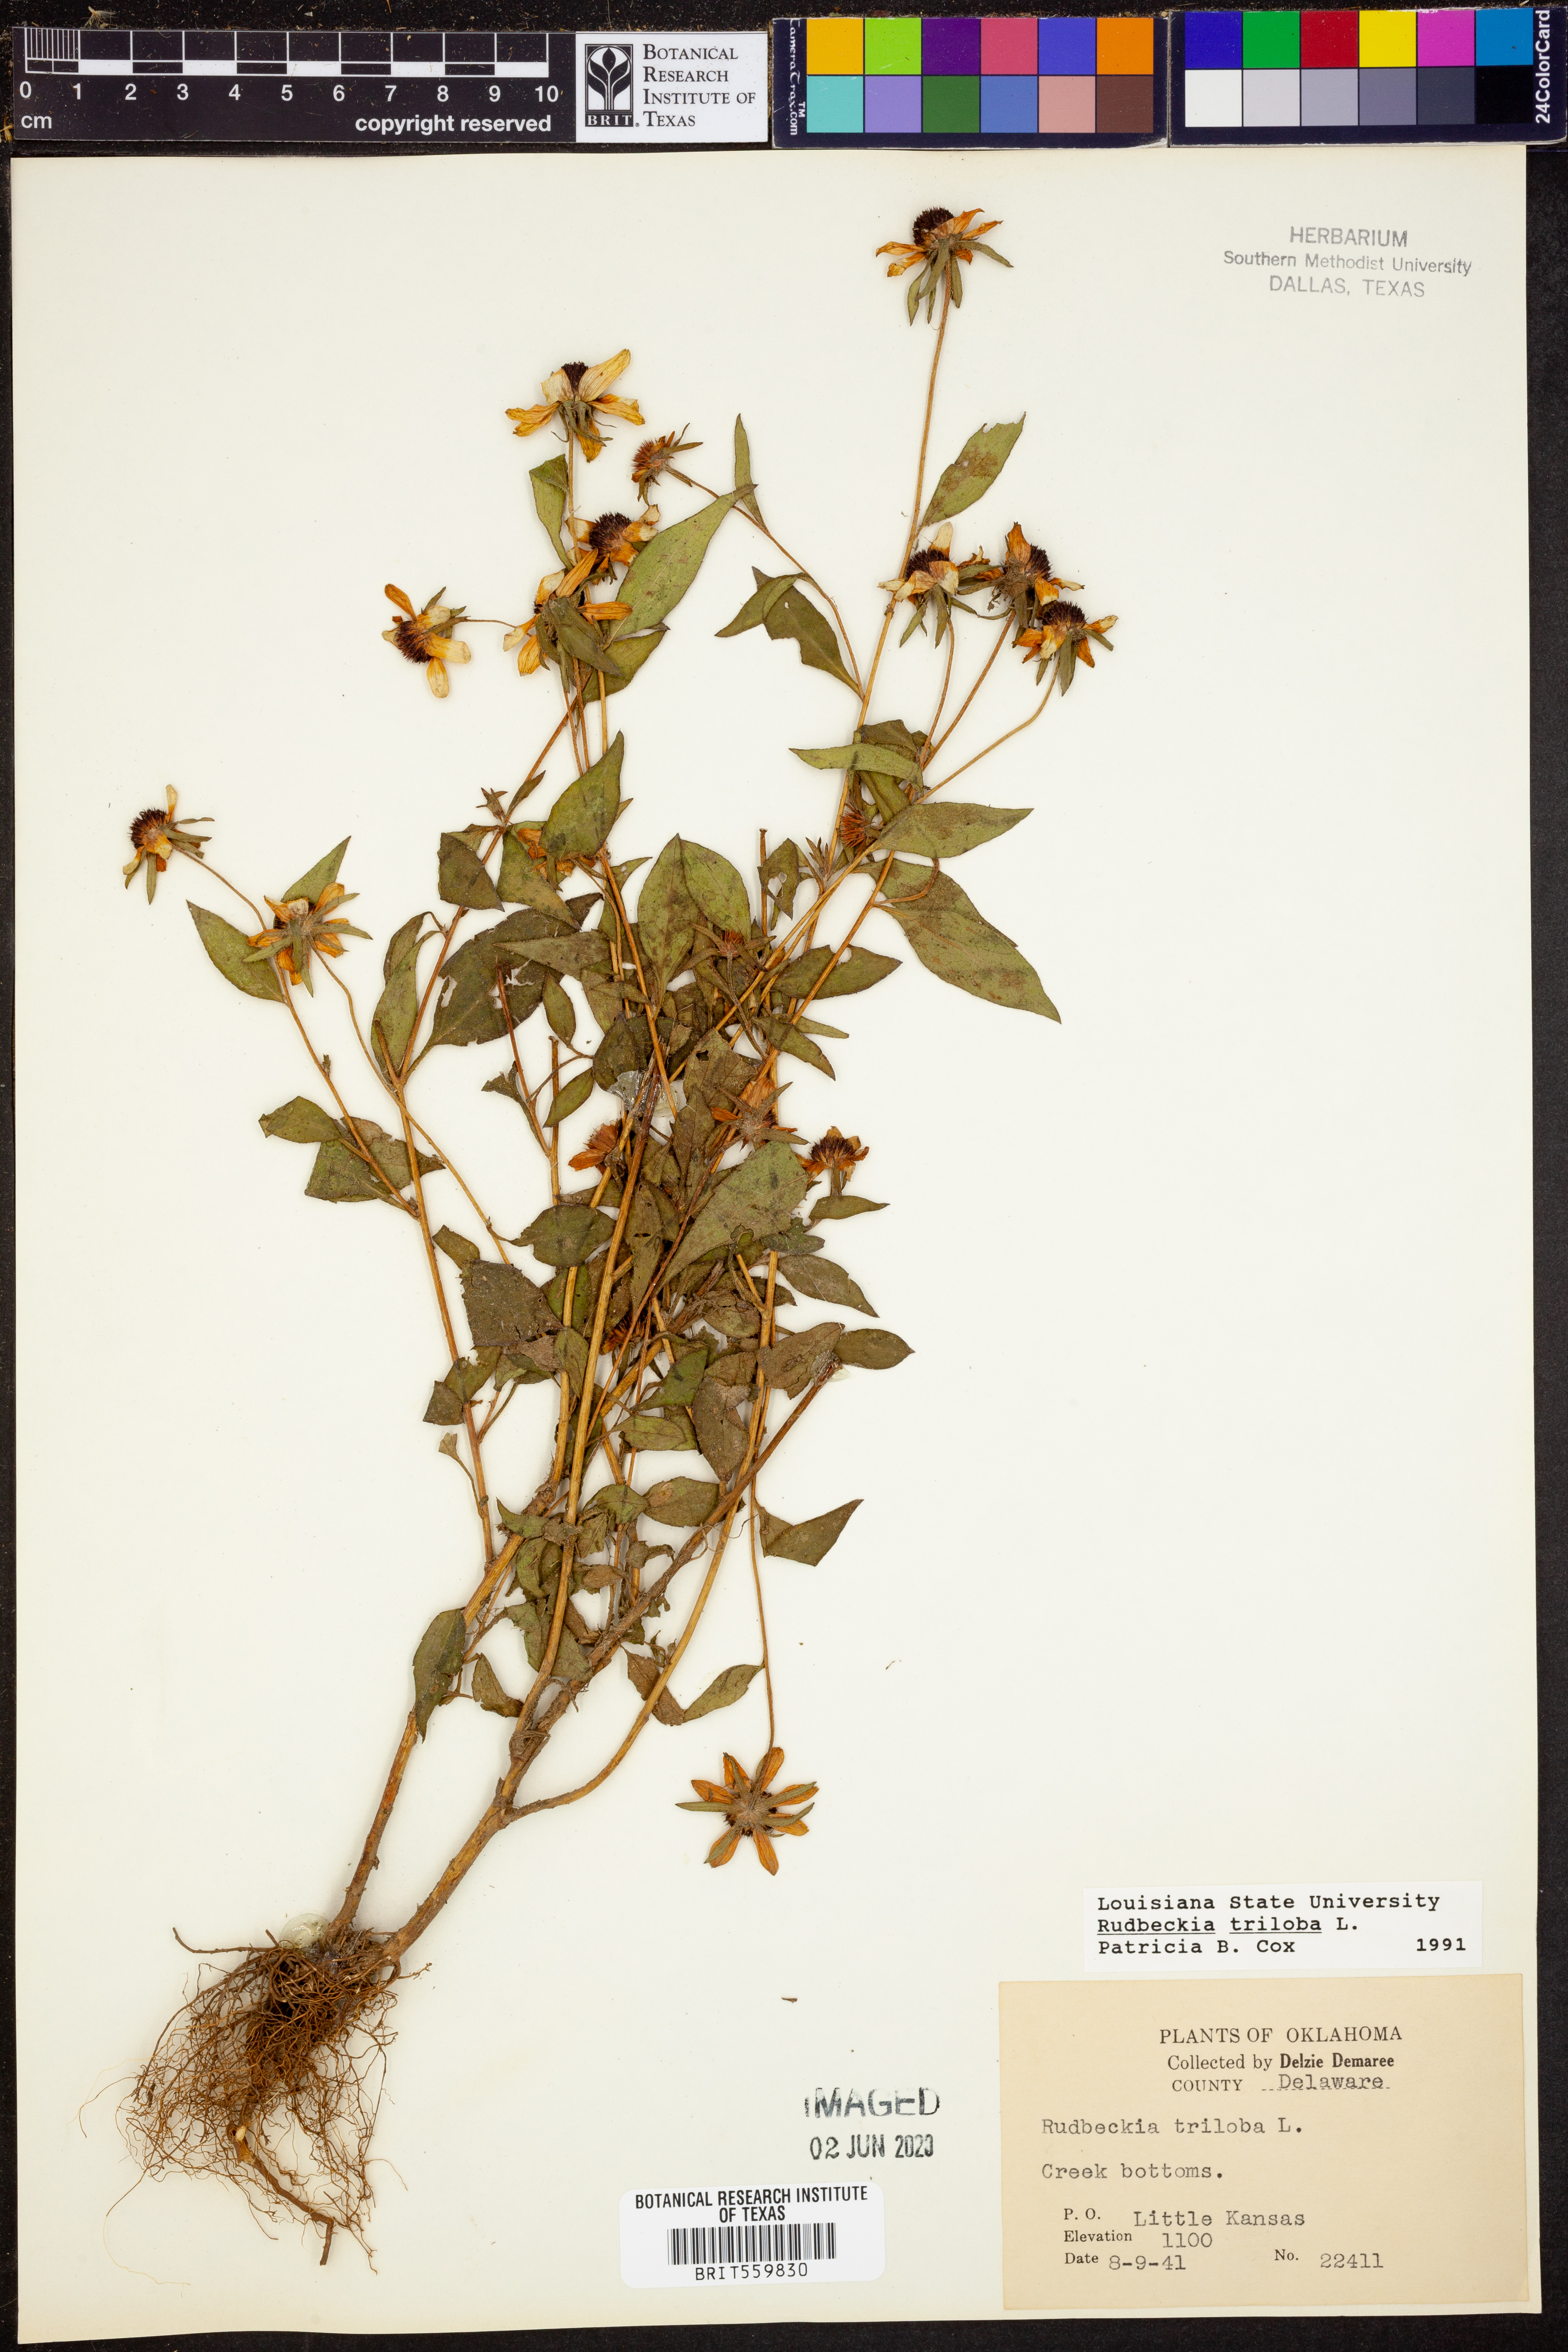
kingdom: Plantae
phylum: Tracheophyta
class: Magnoliopsida
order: Asterales
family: Asteraceae
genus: Rudbeckia
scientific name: Rudbeckia triloba
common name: Thin-leaved coneflower
